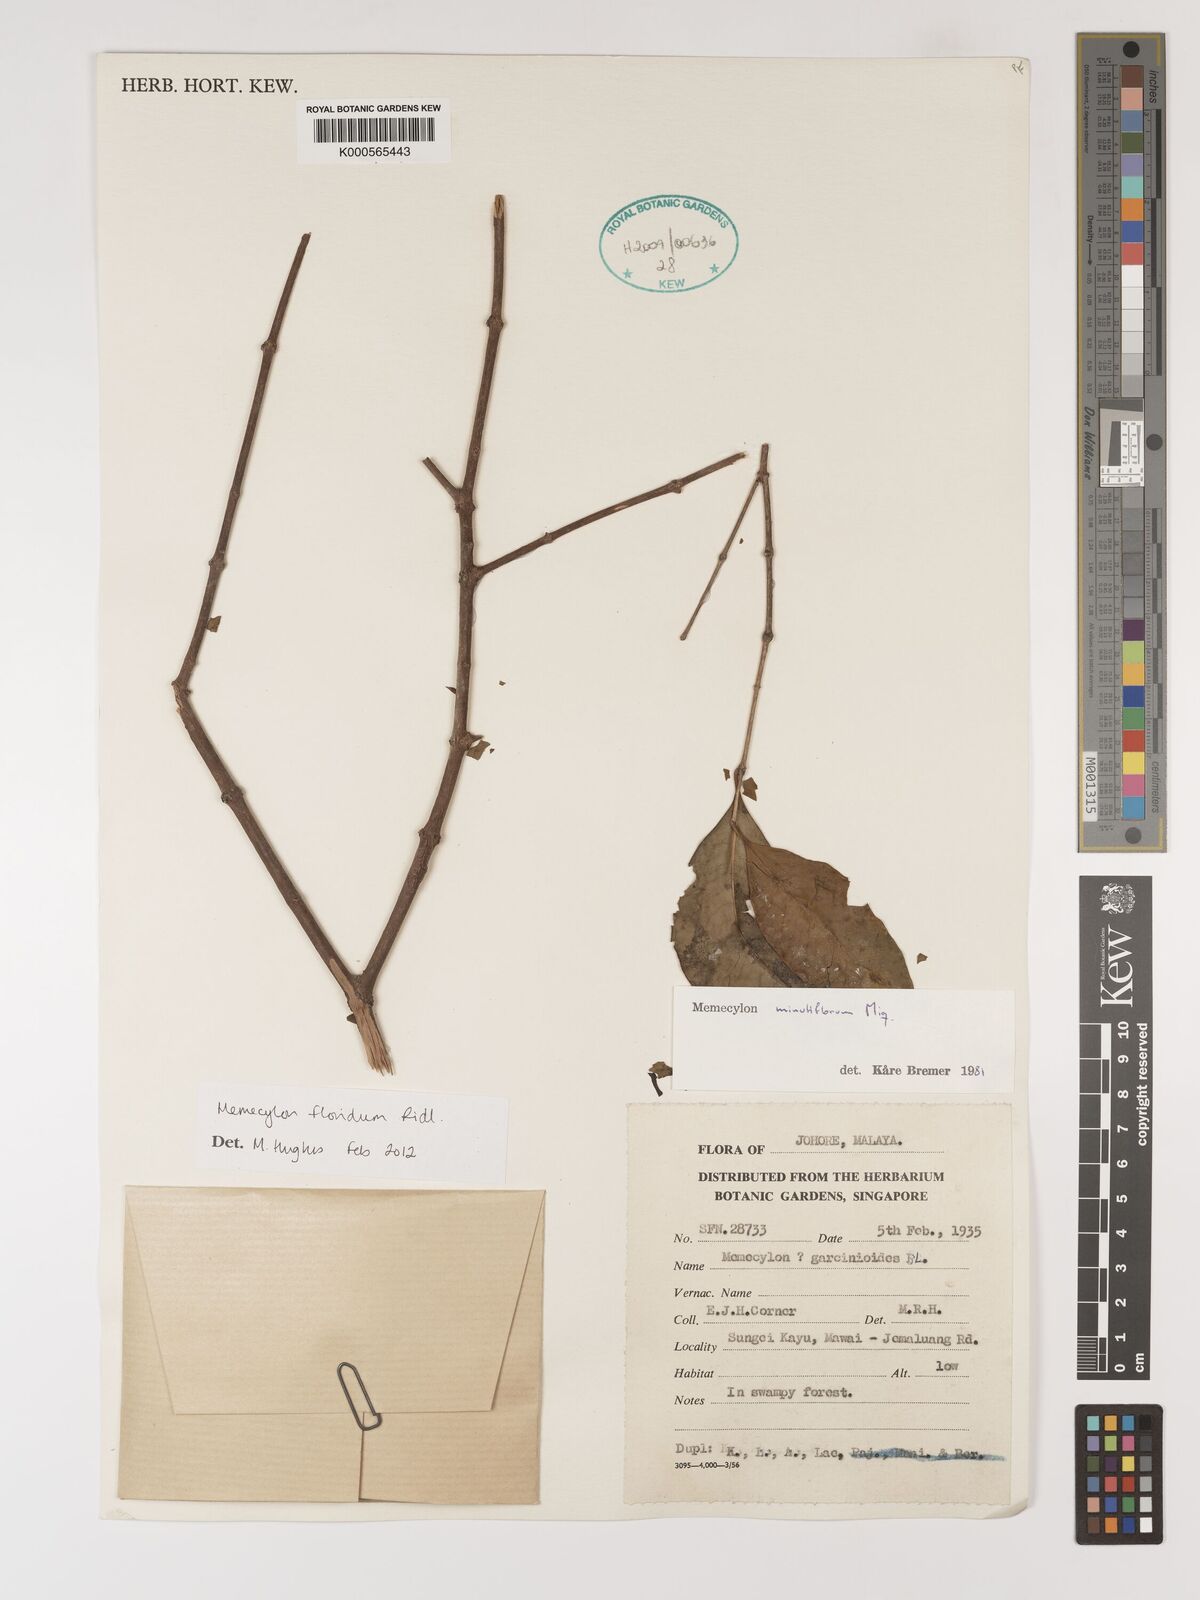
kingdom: Plantae
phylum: Tracheophyta
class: Magnoliopsida
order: Myrtales
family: Melastomataceae
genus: Memecylon
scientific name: Memecylon floridum
